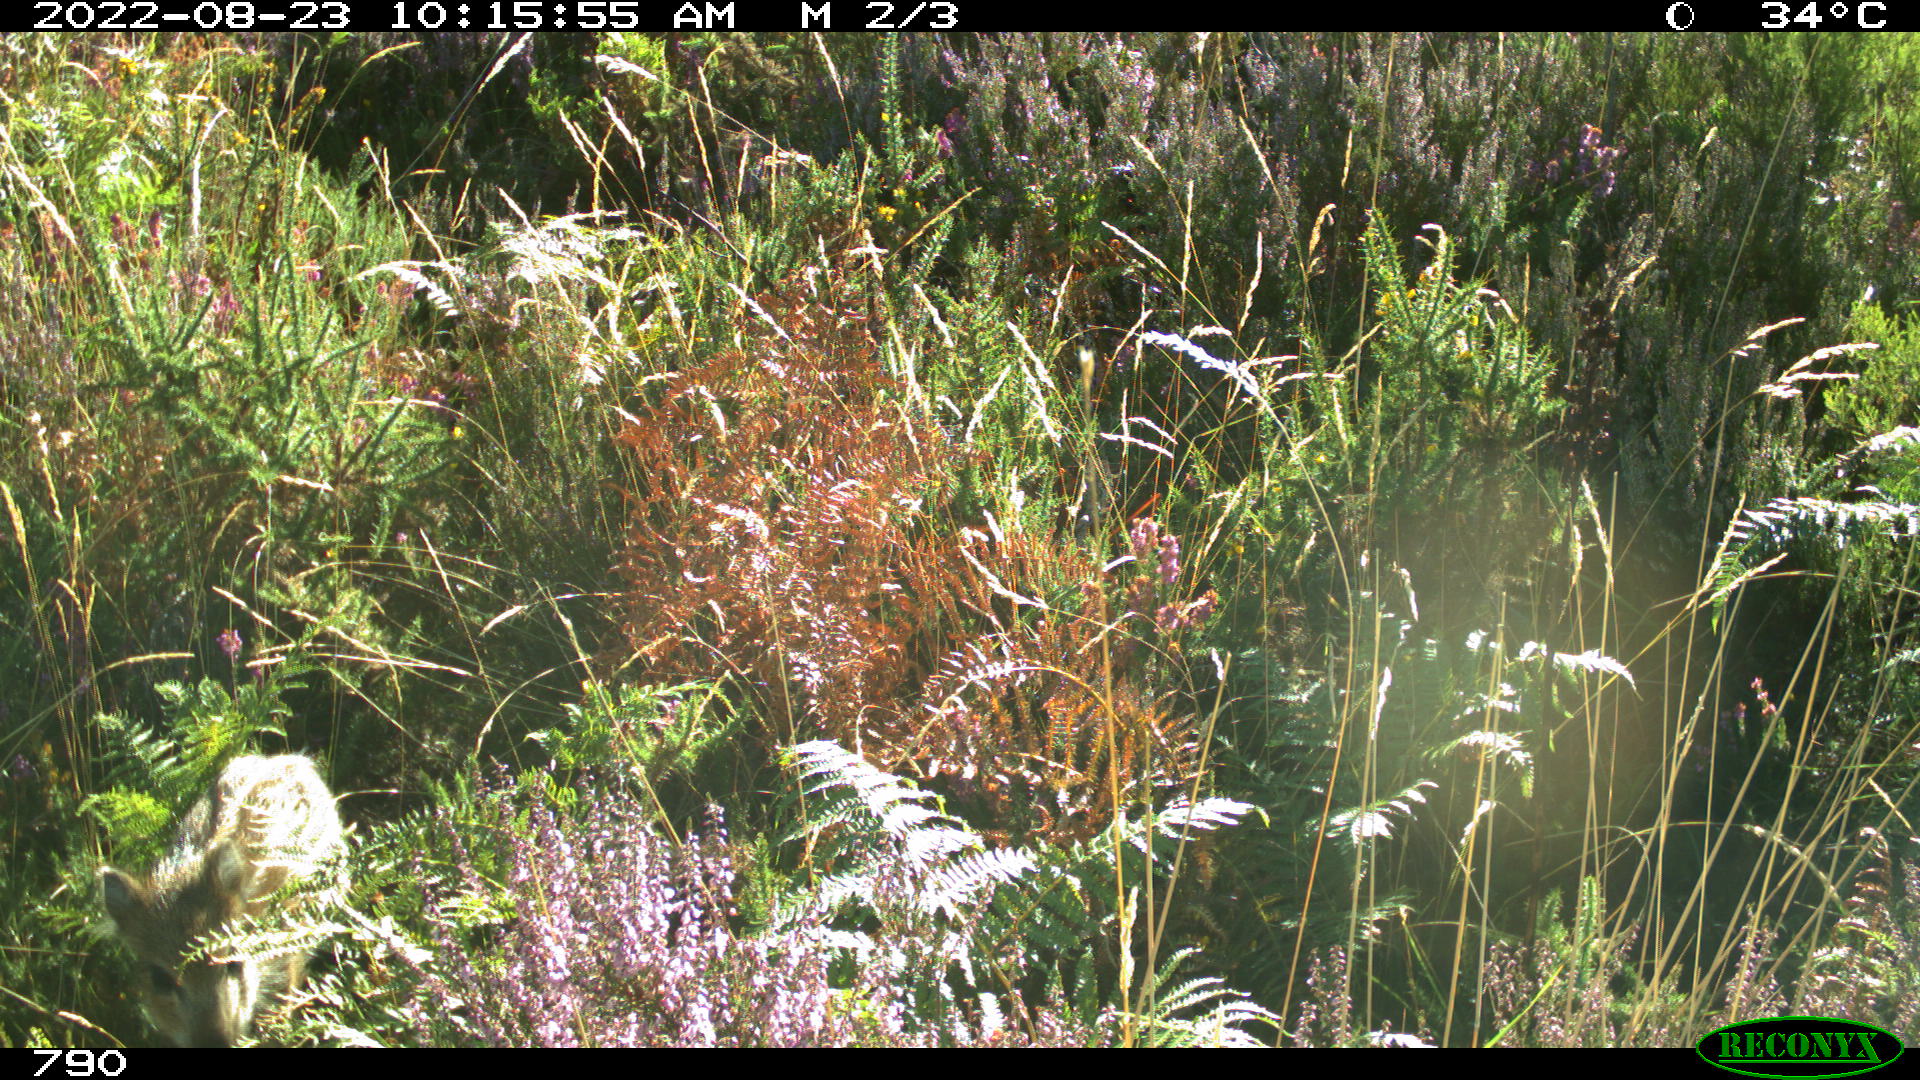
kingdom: Animalia
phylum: Chordata
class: Mammalia
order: Artiodactyla
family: Suidae
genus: Sus
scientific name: Sus scrofa
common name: Wild boar
